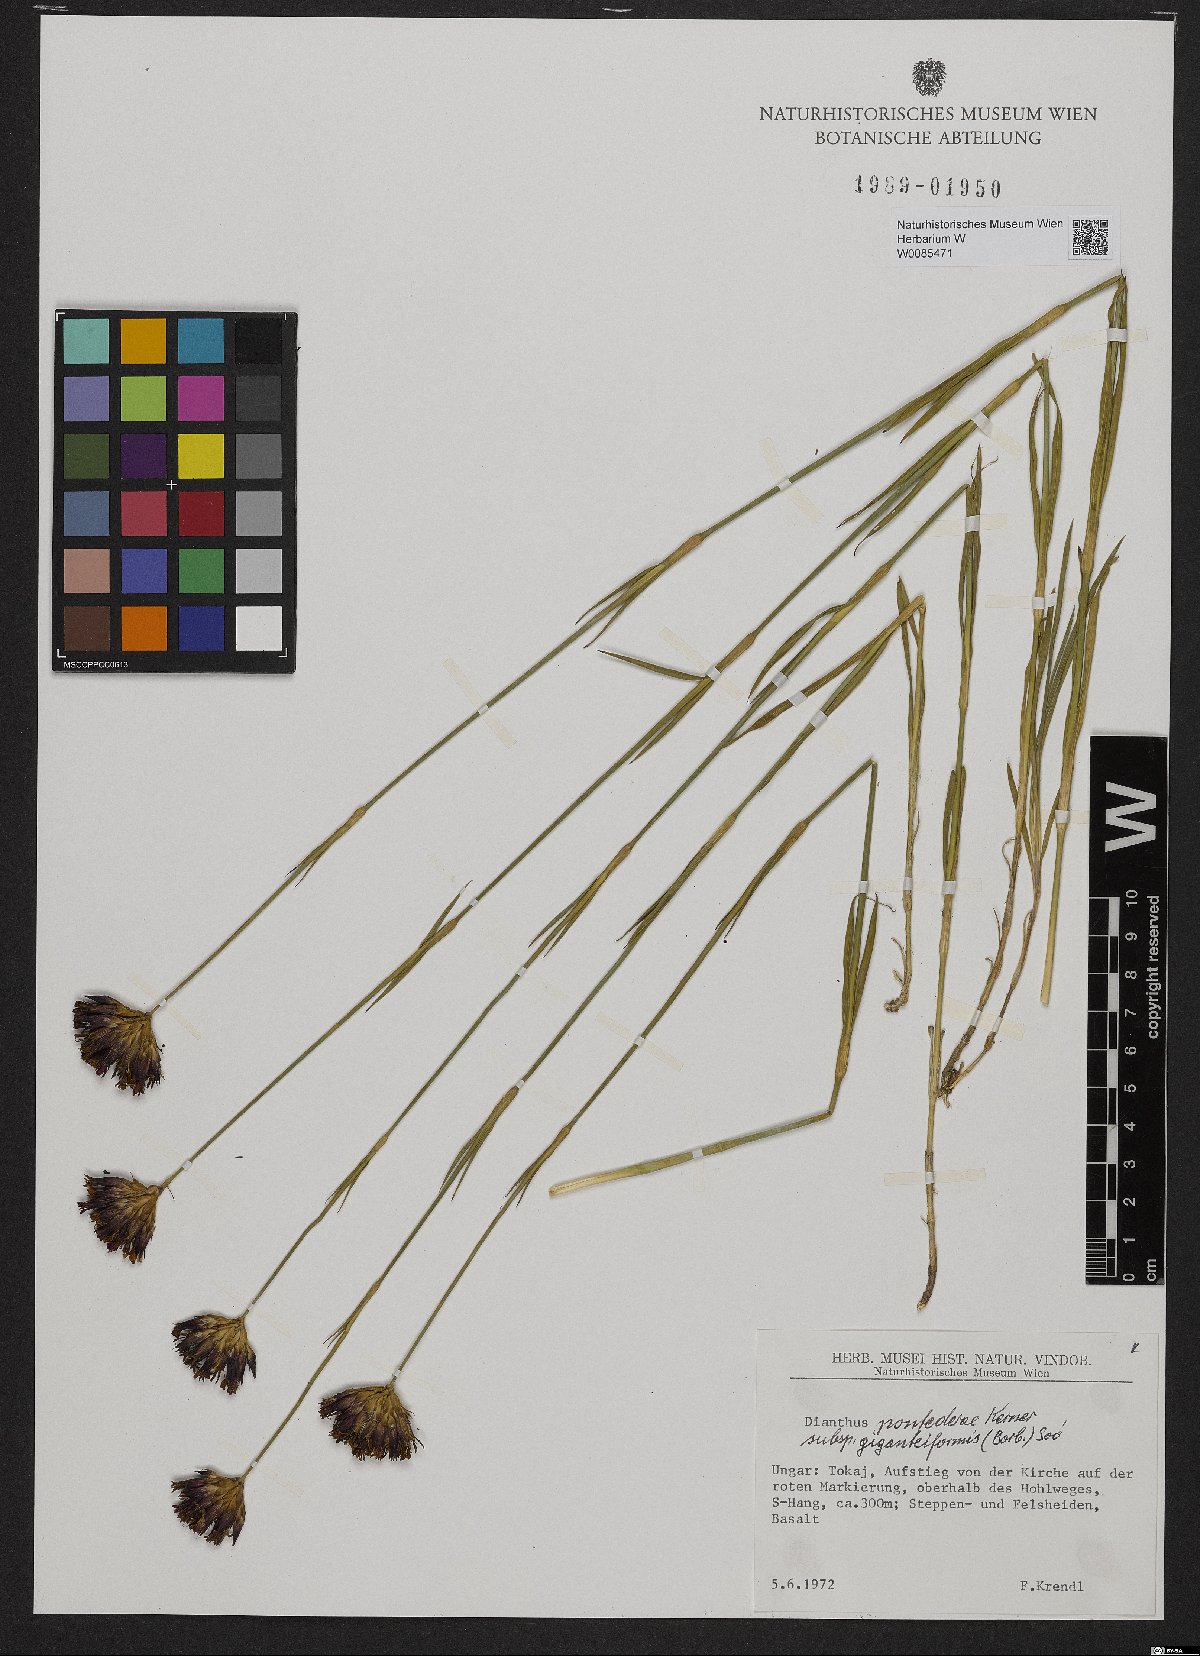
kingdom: Plantae
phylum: Tracheophyta
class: Magnoliopsida
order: Caryophyllales
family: Caryophyllaceae
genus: Dianthus
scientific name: Dianthus giganteiformis
